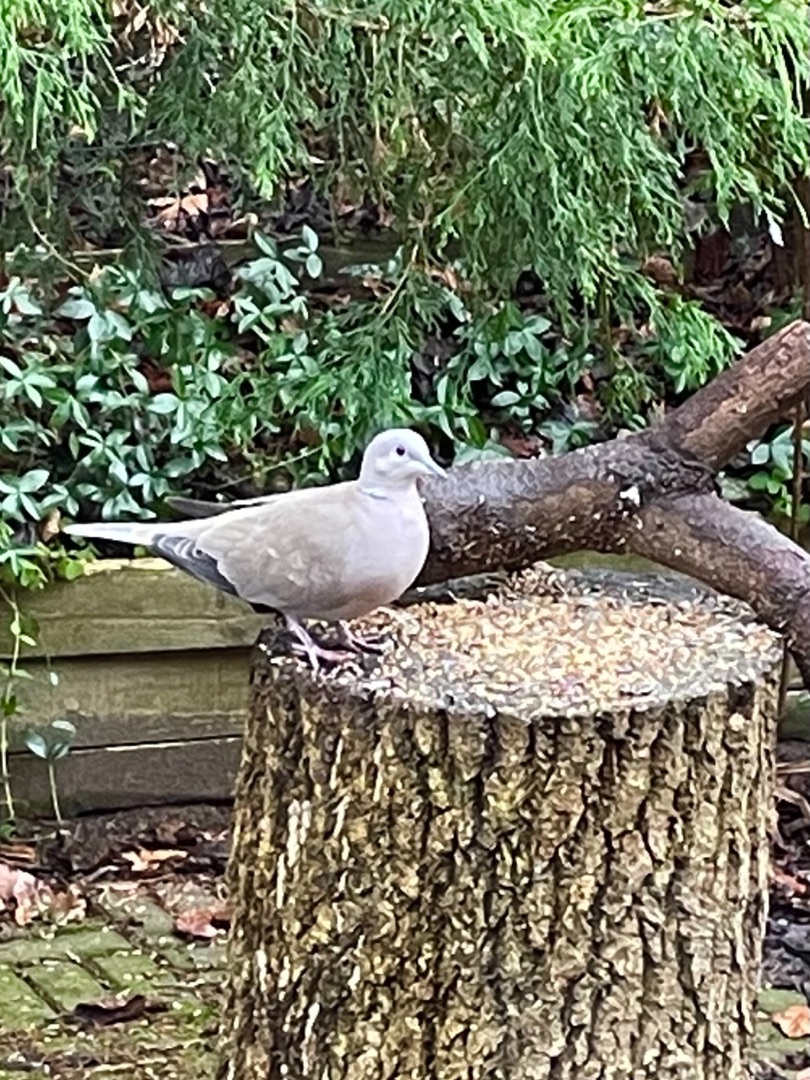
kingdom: Animalia
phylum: Chordata
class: Aves
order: Columbiformes
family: Columbidae
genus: Streptopelia
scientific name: Streptopelia decaocto
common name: Tyrkerdue
